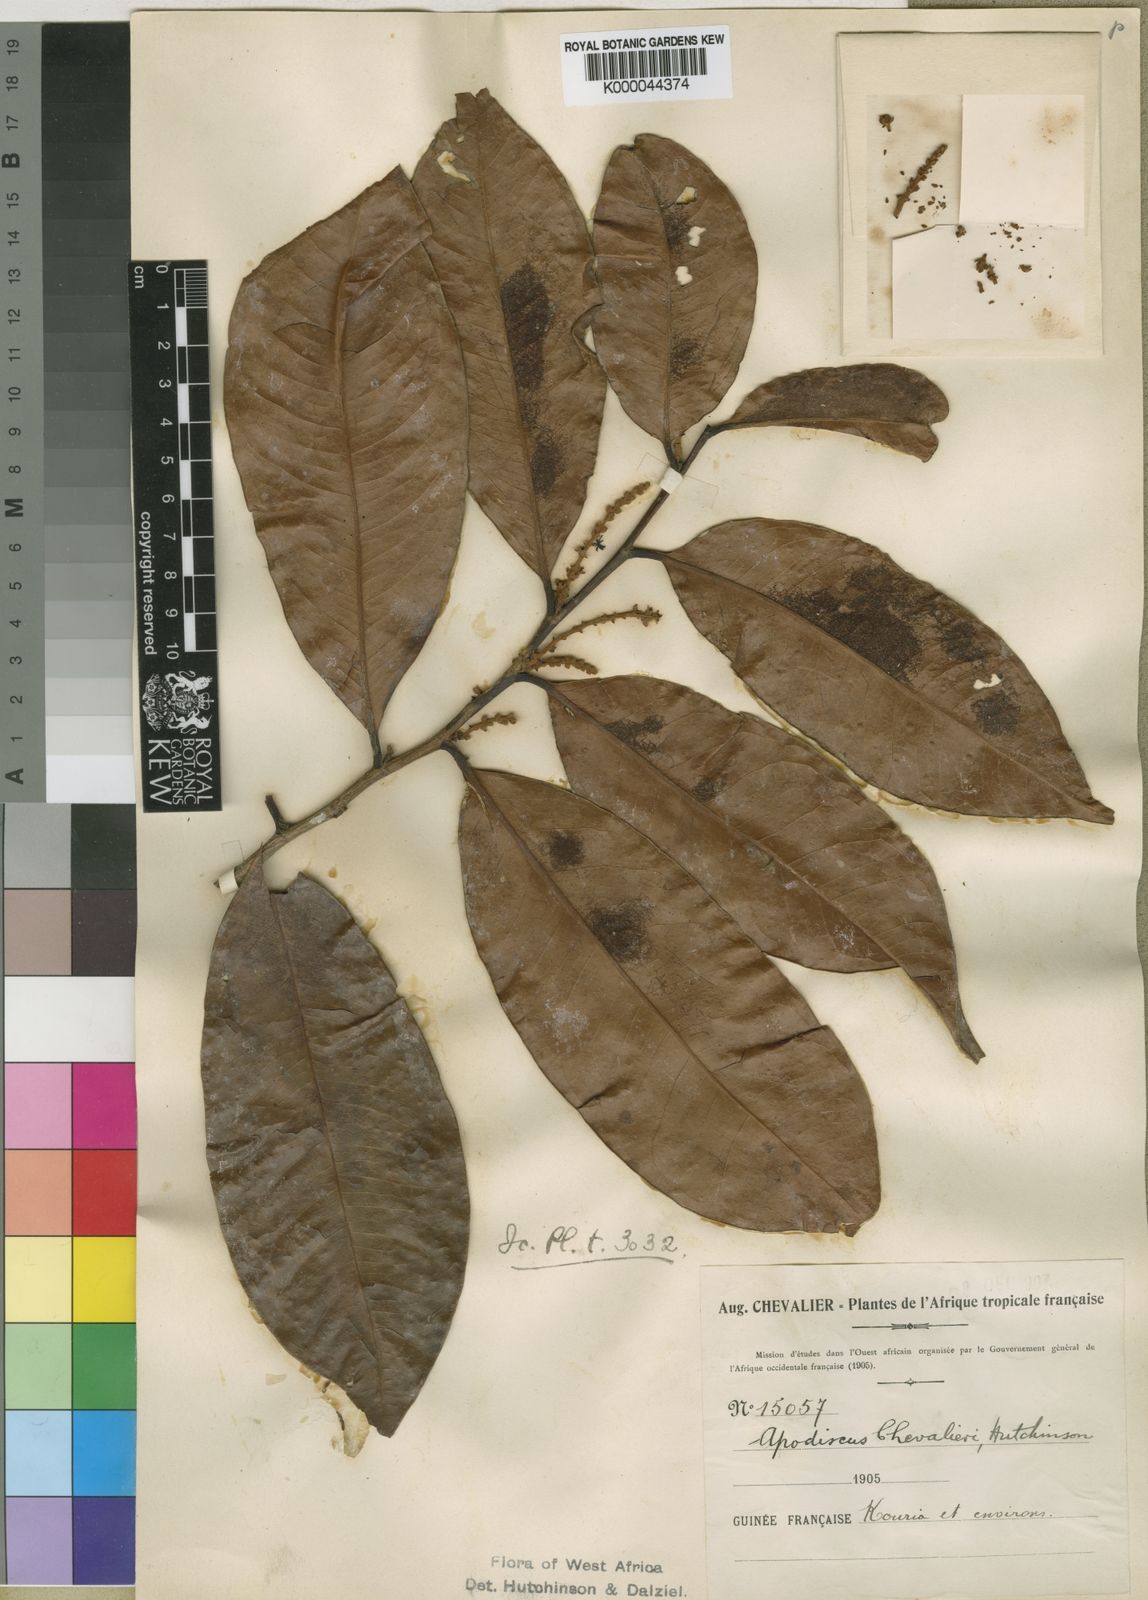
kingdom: Plantae
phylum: Tracheophyta
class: Magnoliopsida
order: Malpighiales
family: Phyllanthaceae
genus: Apodiscus
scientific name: Apodiscus chevalieri
